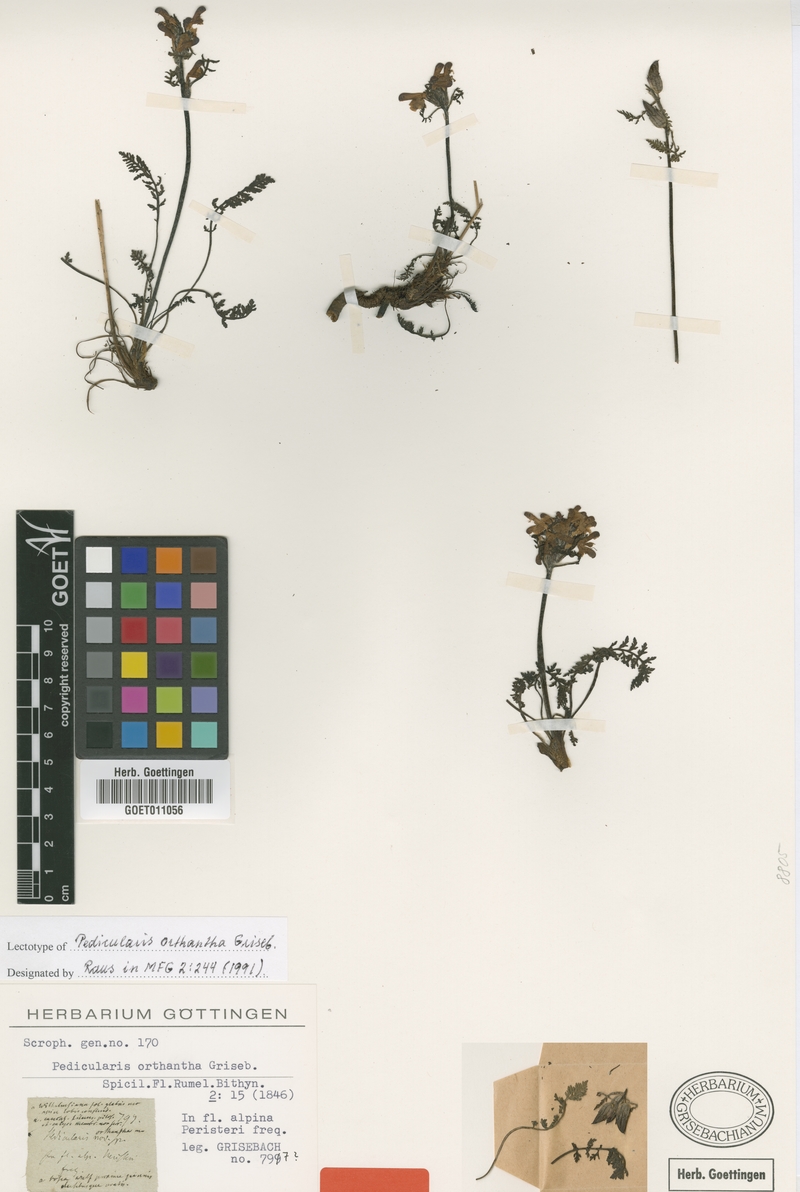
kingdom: Plantae
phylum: Tracheophyta
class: Magnoliopsida
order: Lamiales
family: Orobanchaceae
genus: Pedicularis
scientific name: Pedicularis orthantha
